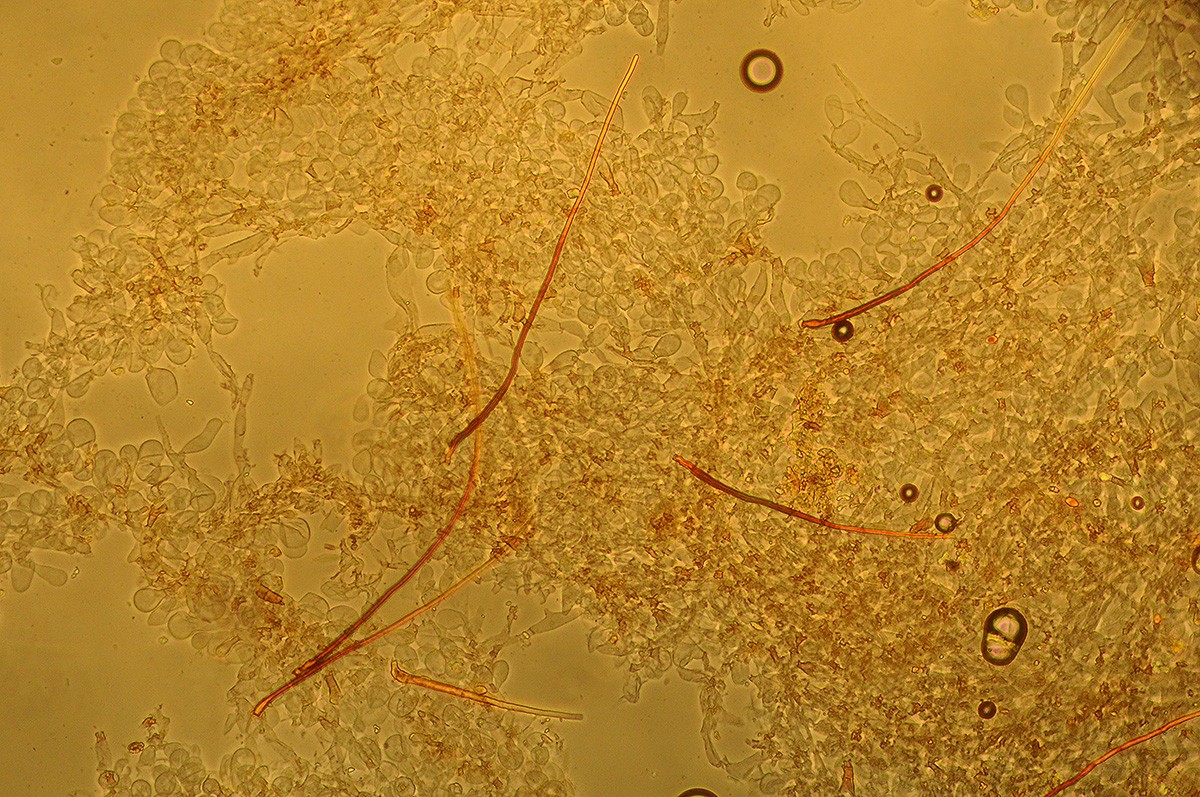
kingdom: Fungi
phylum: Basidiomycota
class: Agaricomycetes
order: Agaricales
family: Psathyrellaceae
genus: Parasola
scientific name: Parasola conopilea
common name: kegle-hjulhat
